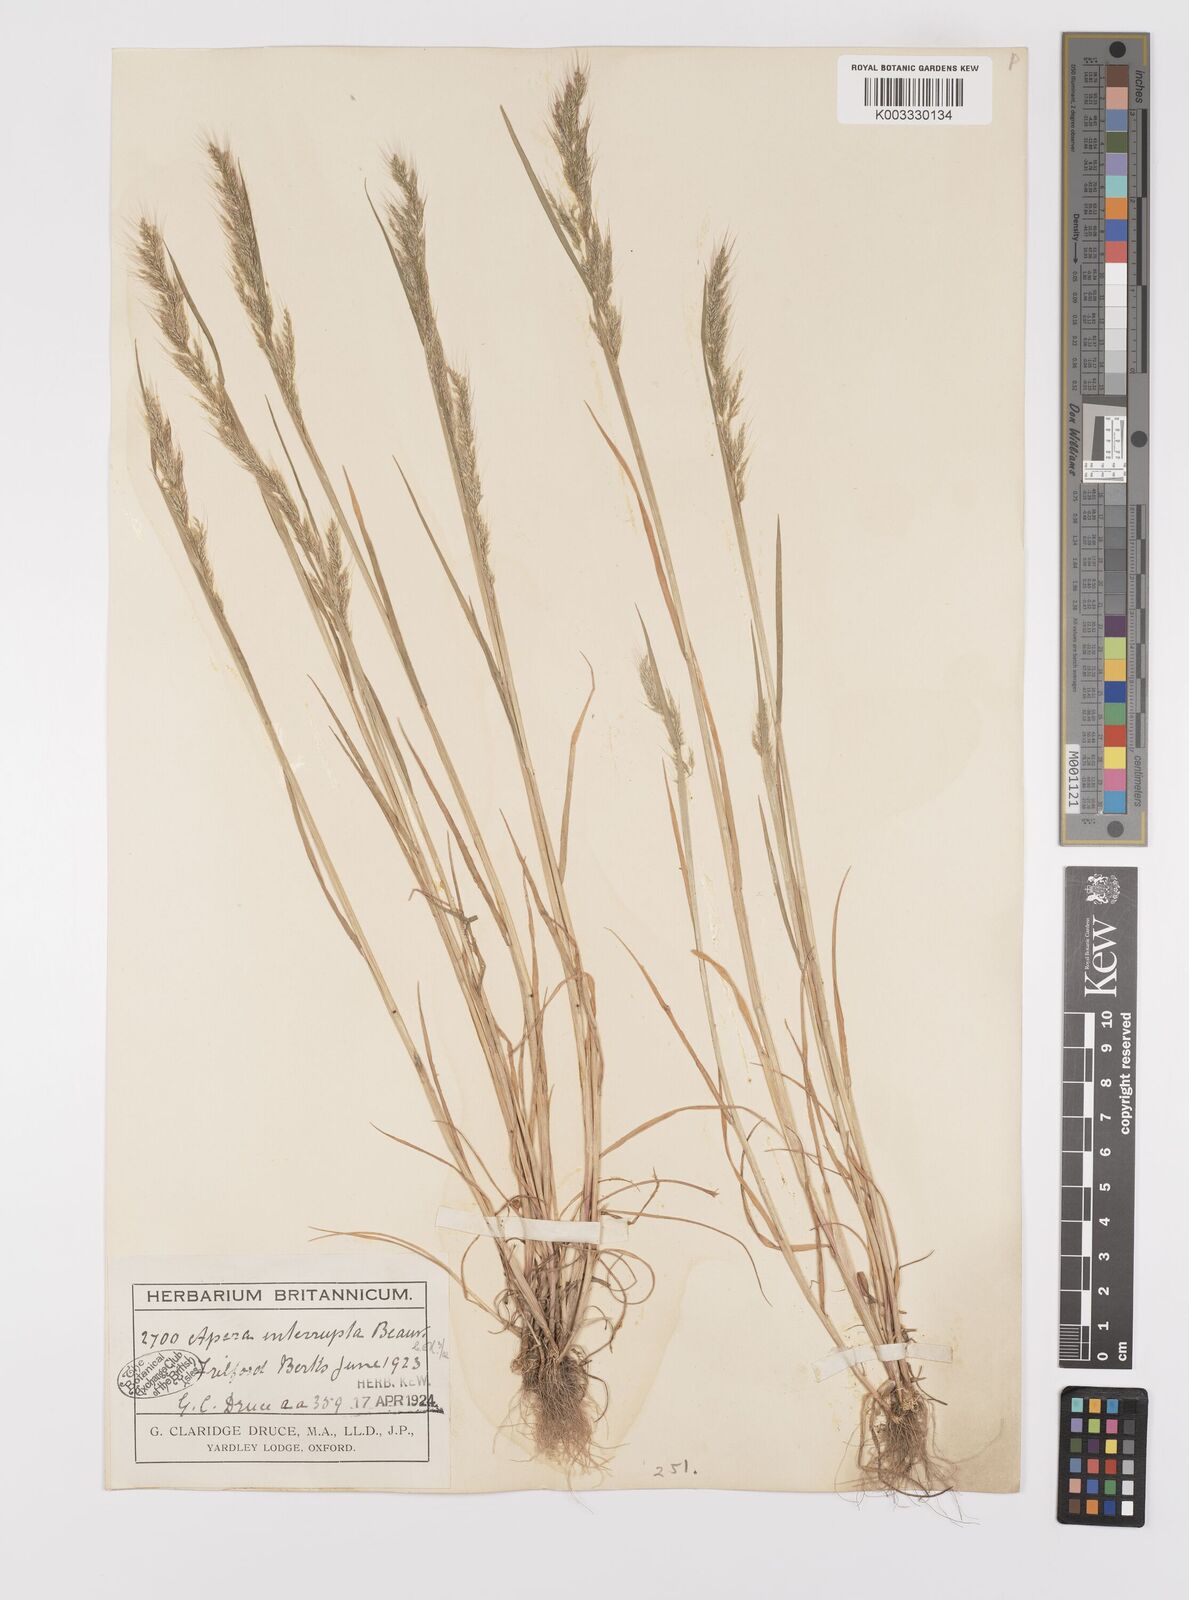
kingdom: Plantae
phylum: Tracheophyta
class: Liliopsida
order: Poales
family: Poaceae
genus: Apera
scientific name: Apera interrupta
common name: Dense silky-bent
